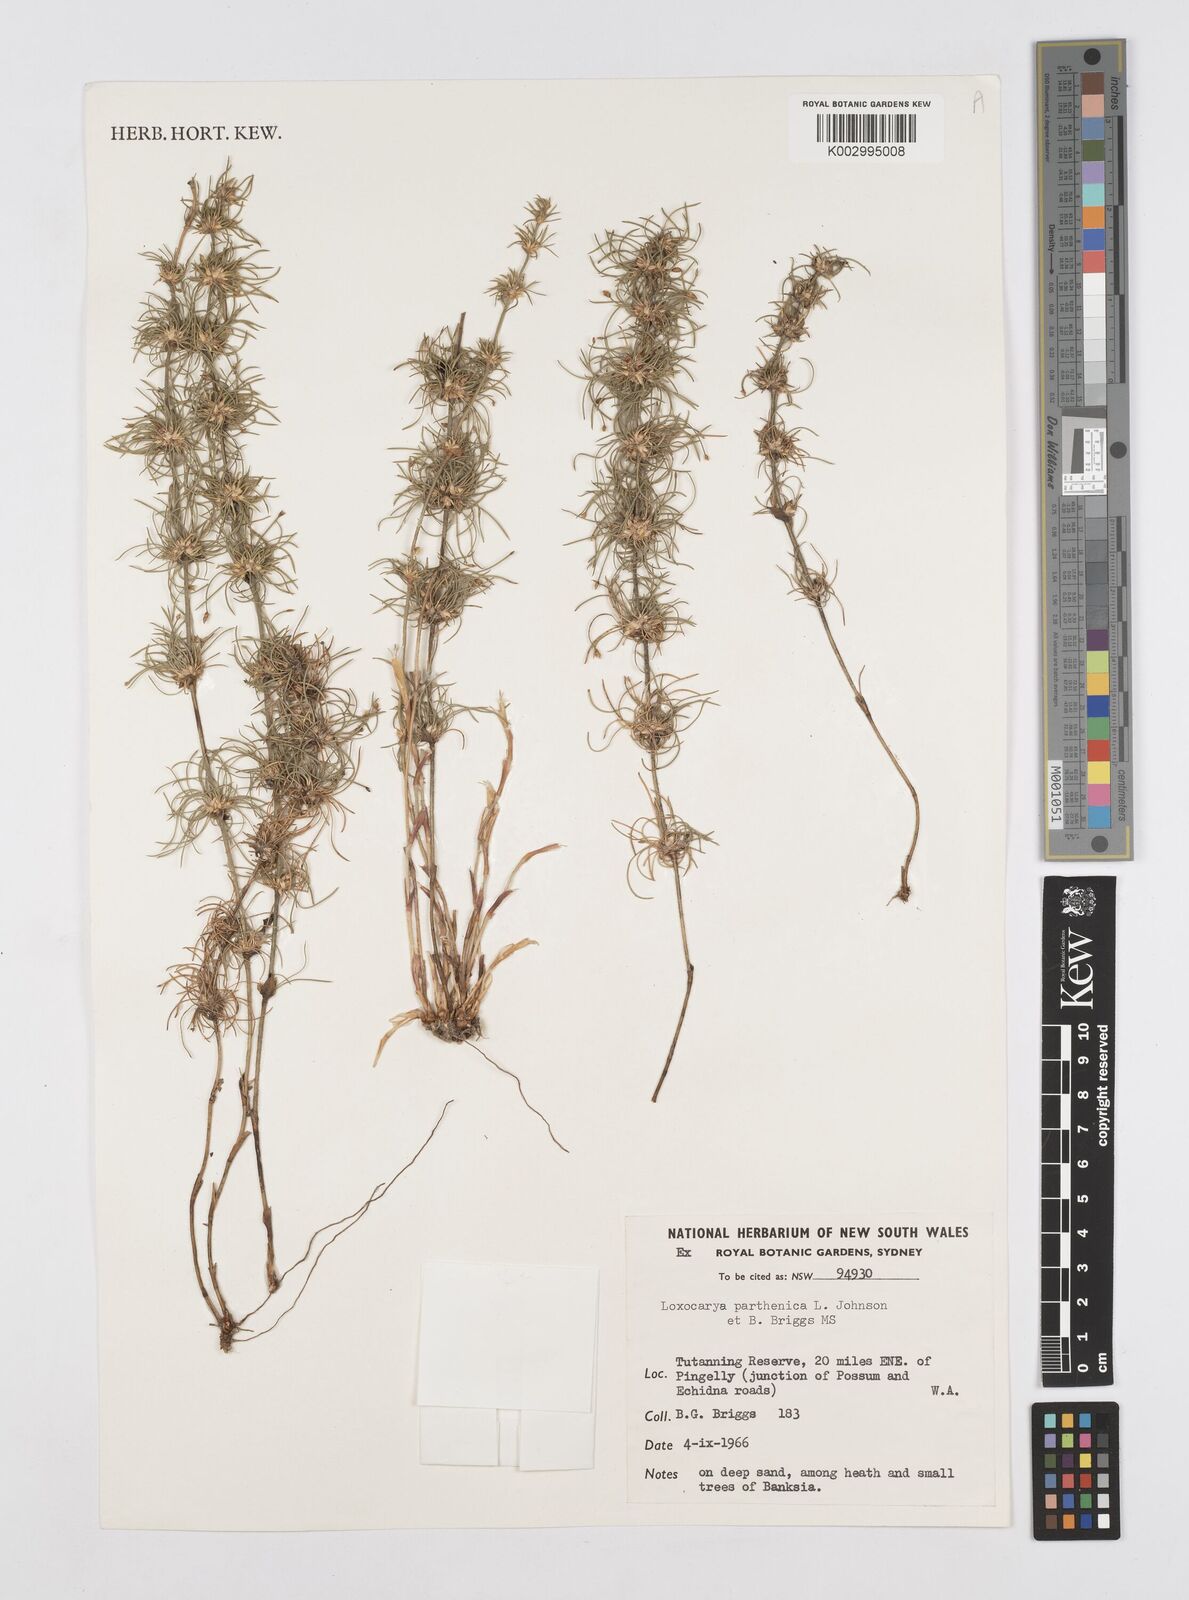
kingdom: Plantae
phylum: Tracheophyta
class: Liliopsida
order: Poales
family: Restionaceae
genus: Desmocladus
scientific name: Desmocladus parthenicus
